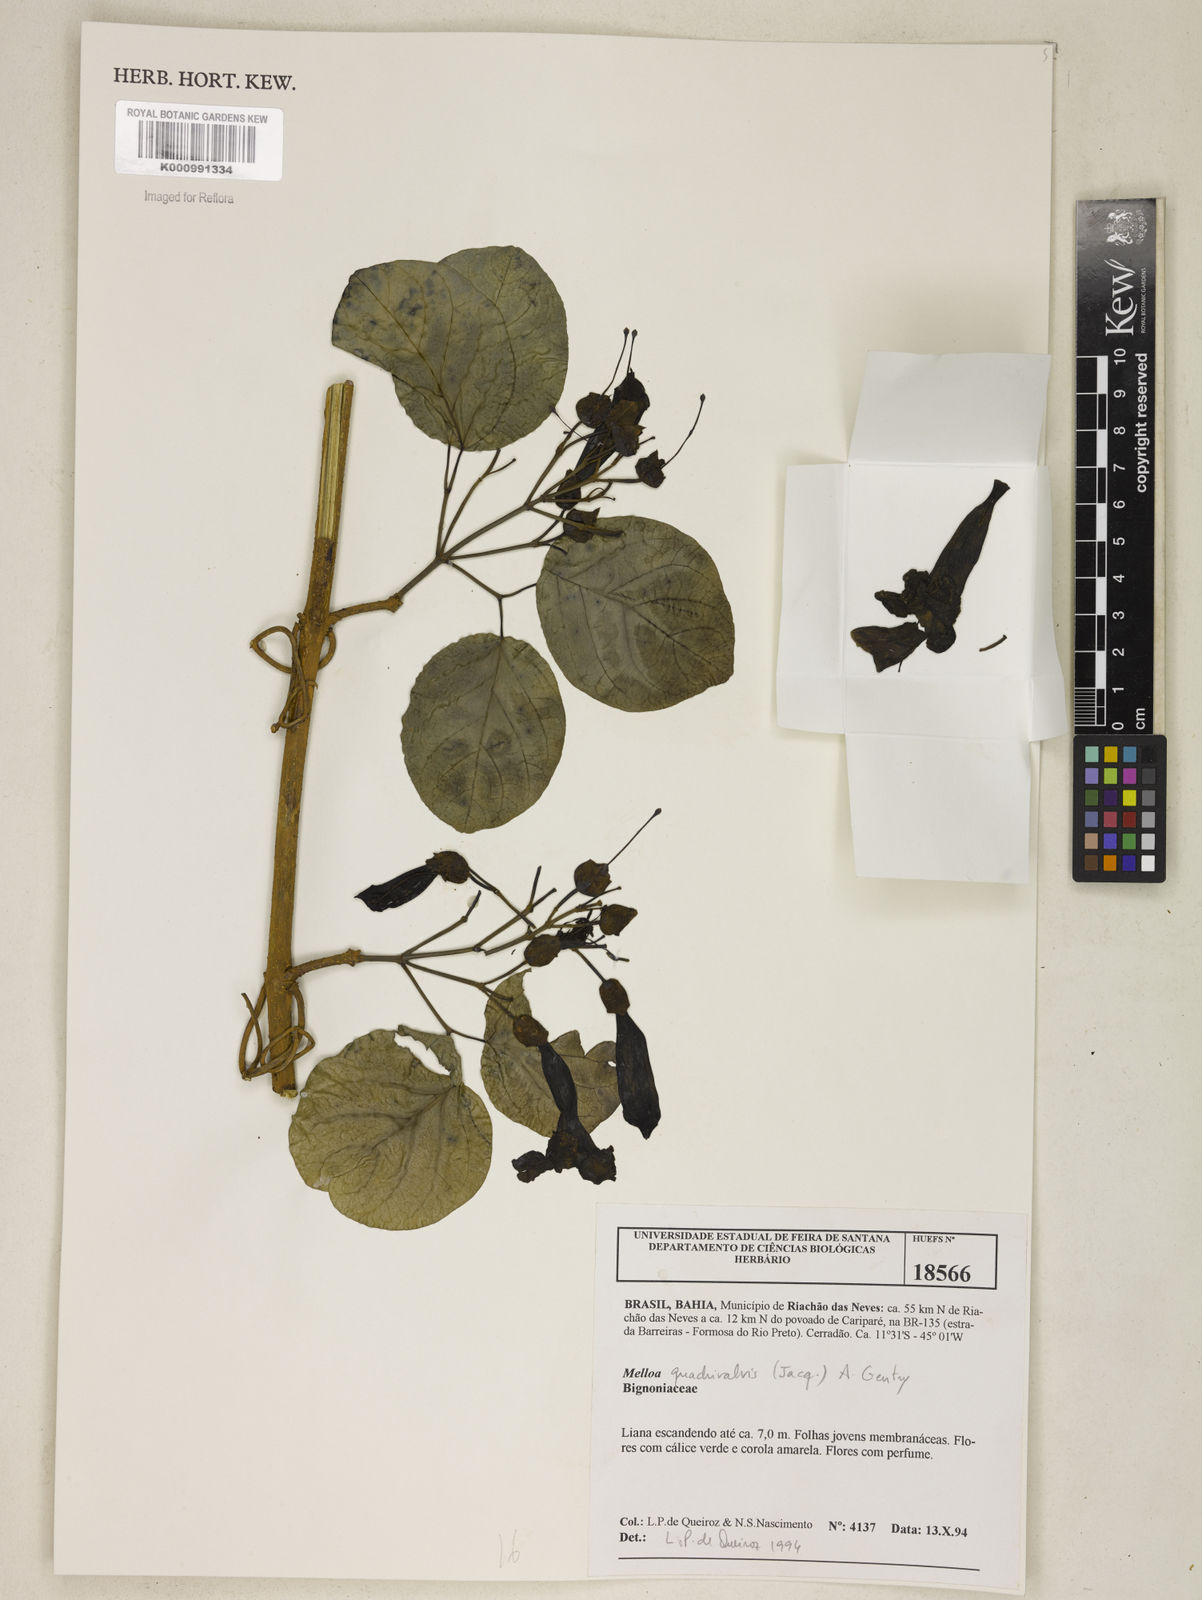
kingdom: Plantae
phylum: Tracheophyta
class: Magnoliopsida
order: Lamiales
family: Bignoniaceae
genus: Dolichandra
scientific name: Dolichandra quadrivalvis
